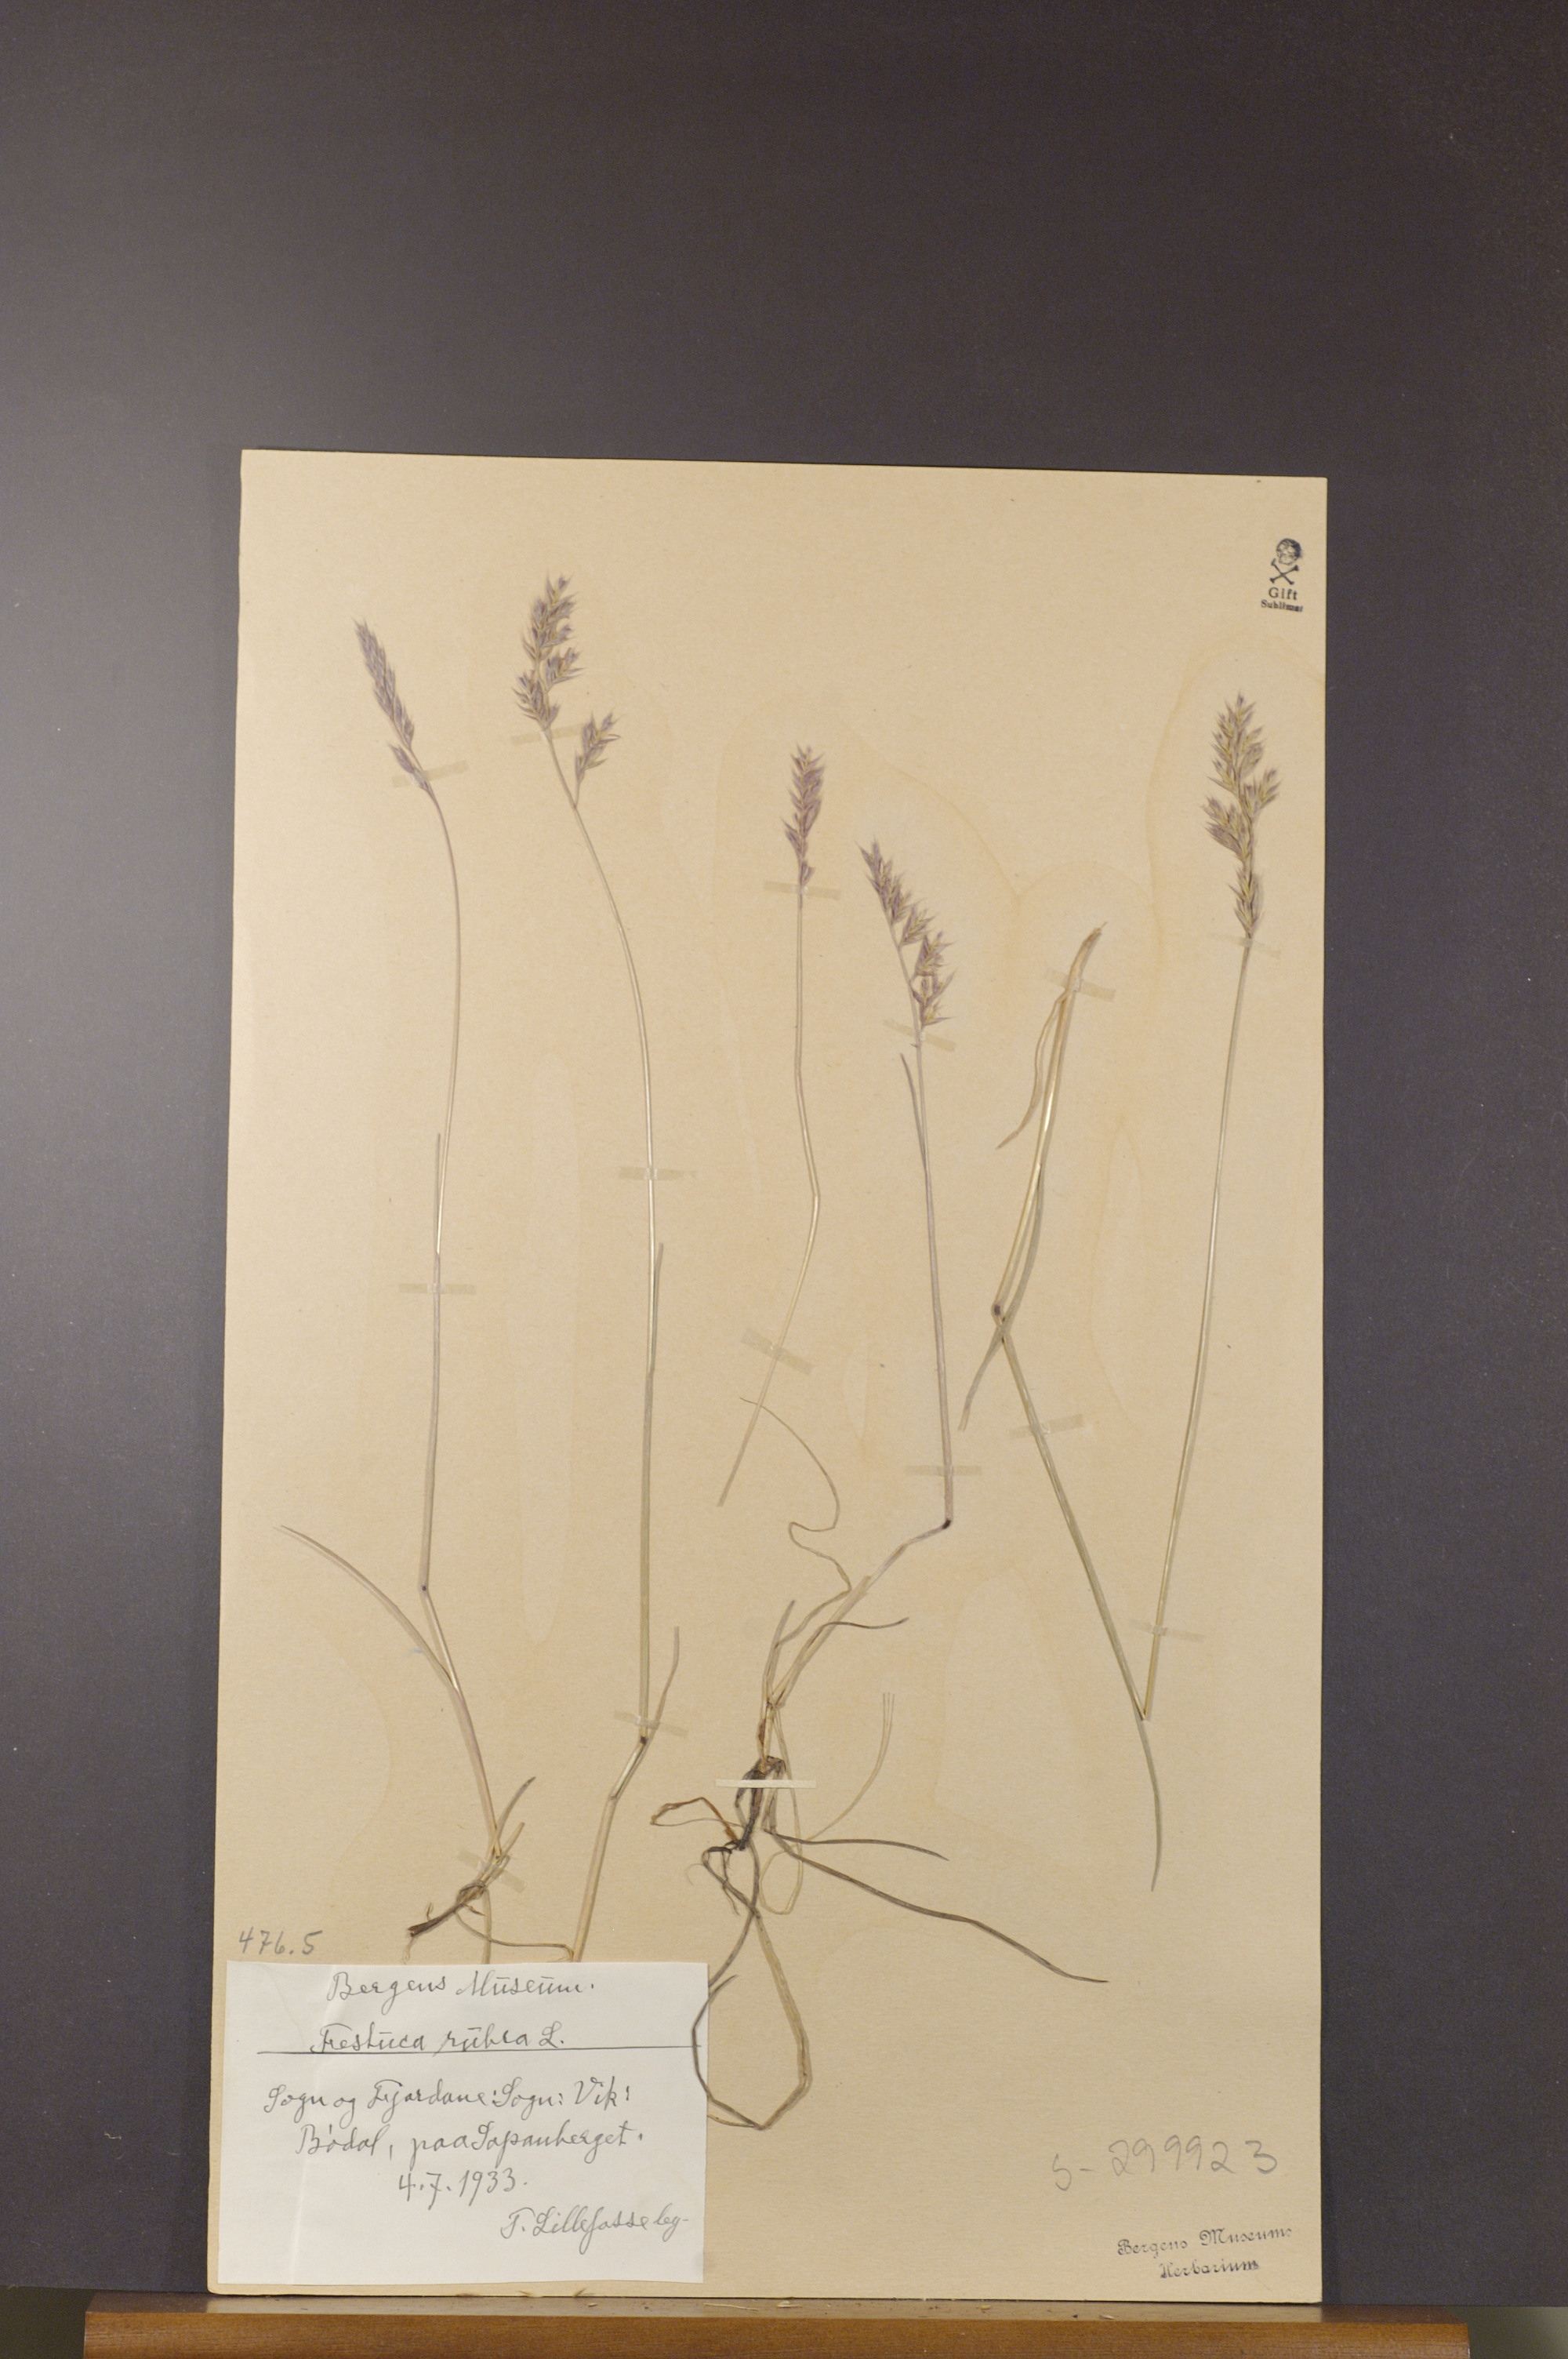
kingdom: Plantae
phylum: Tracheophyta
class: Liliopsida
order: Poales
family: Poaceae
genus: Festuca
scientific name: Festuca rubra
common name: Red fescue
